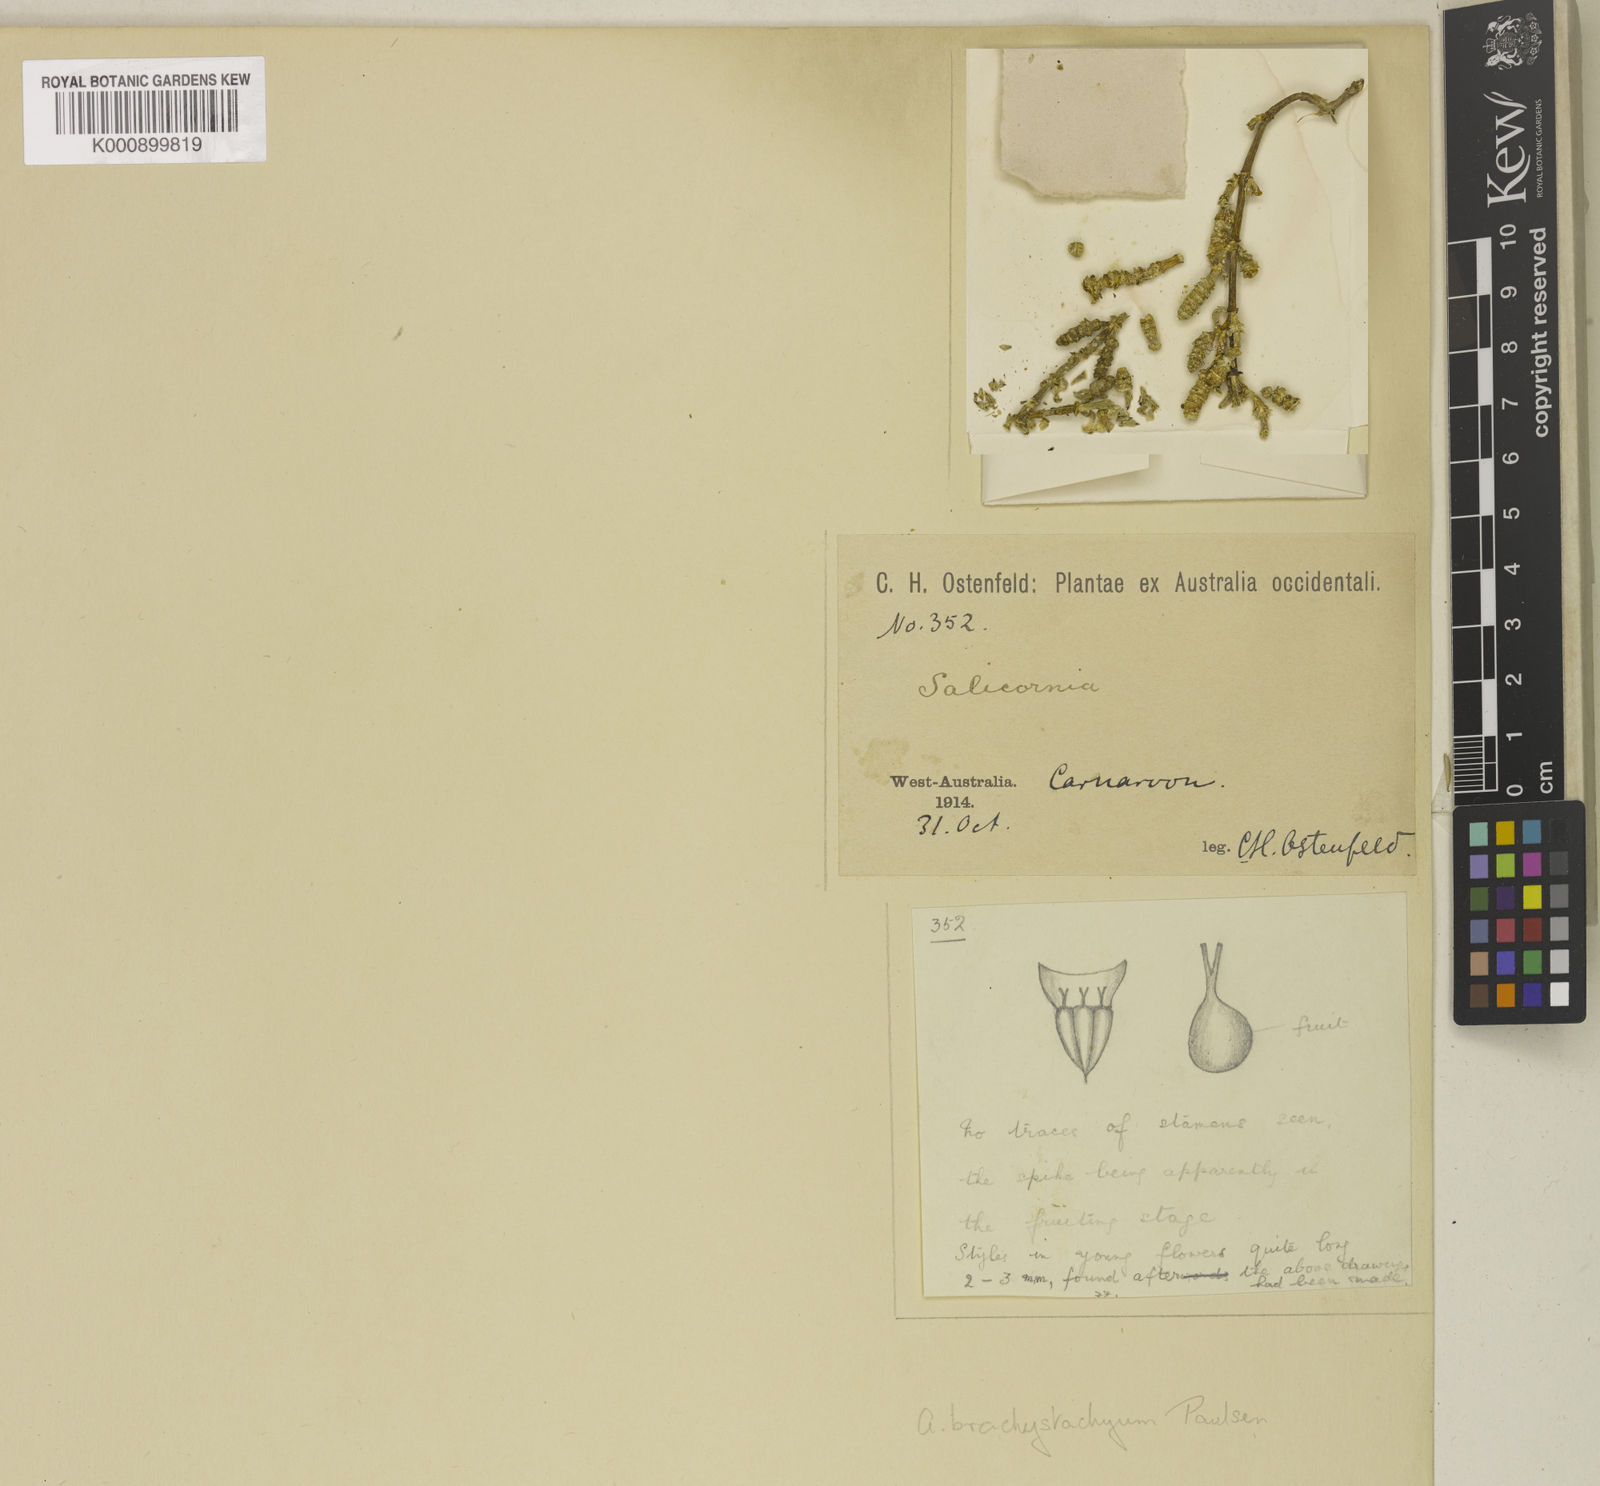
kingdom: Plantae
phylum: Tracheophyta
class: Magnoliopsida
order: Caryophyllales
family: Amaranthaceae
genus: Tecticornia
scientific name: Tecticornia indica
